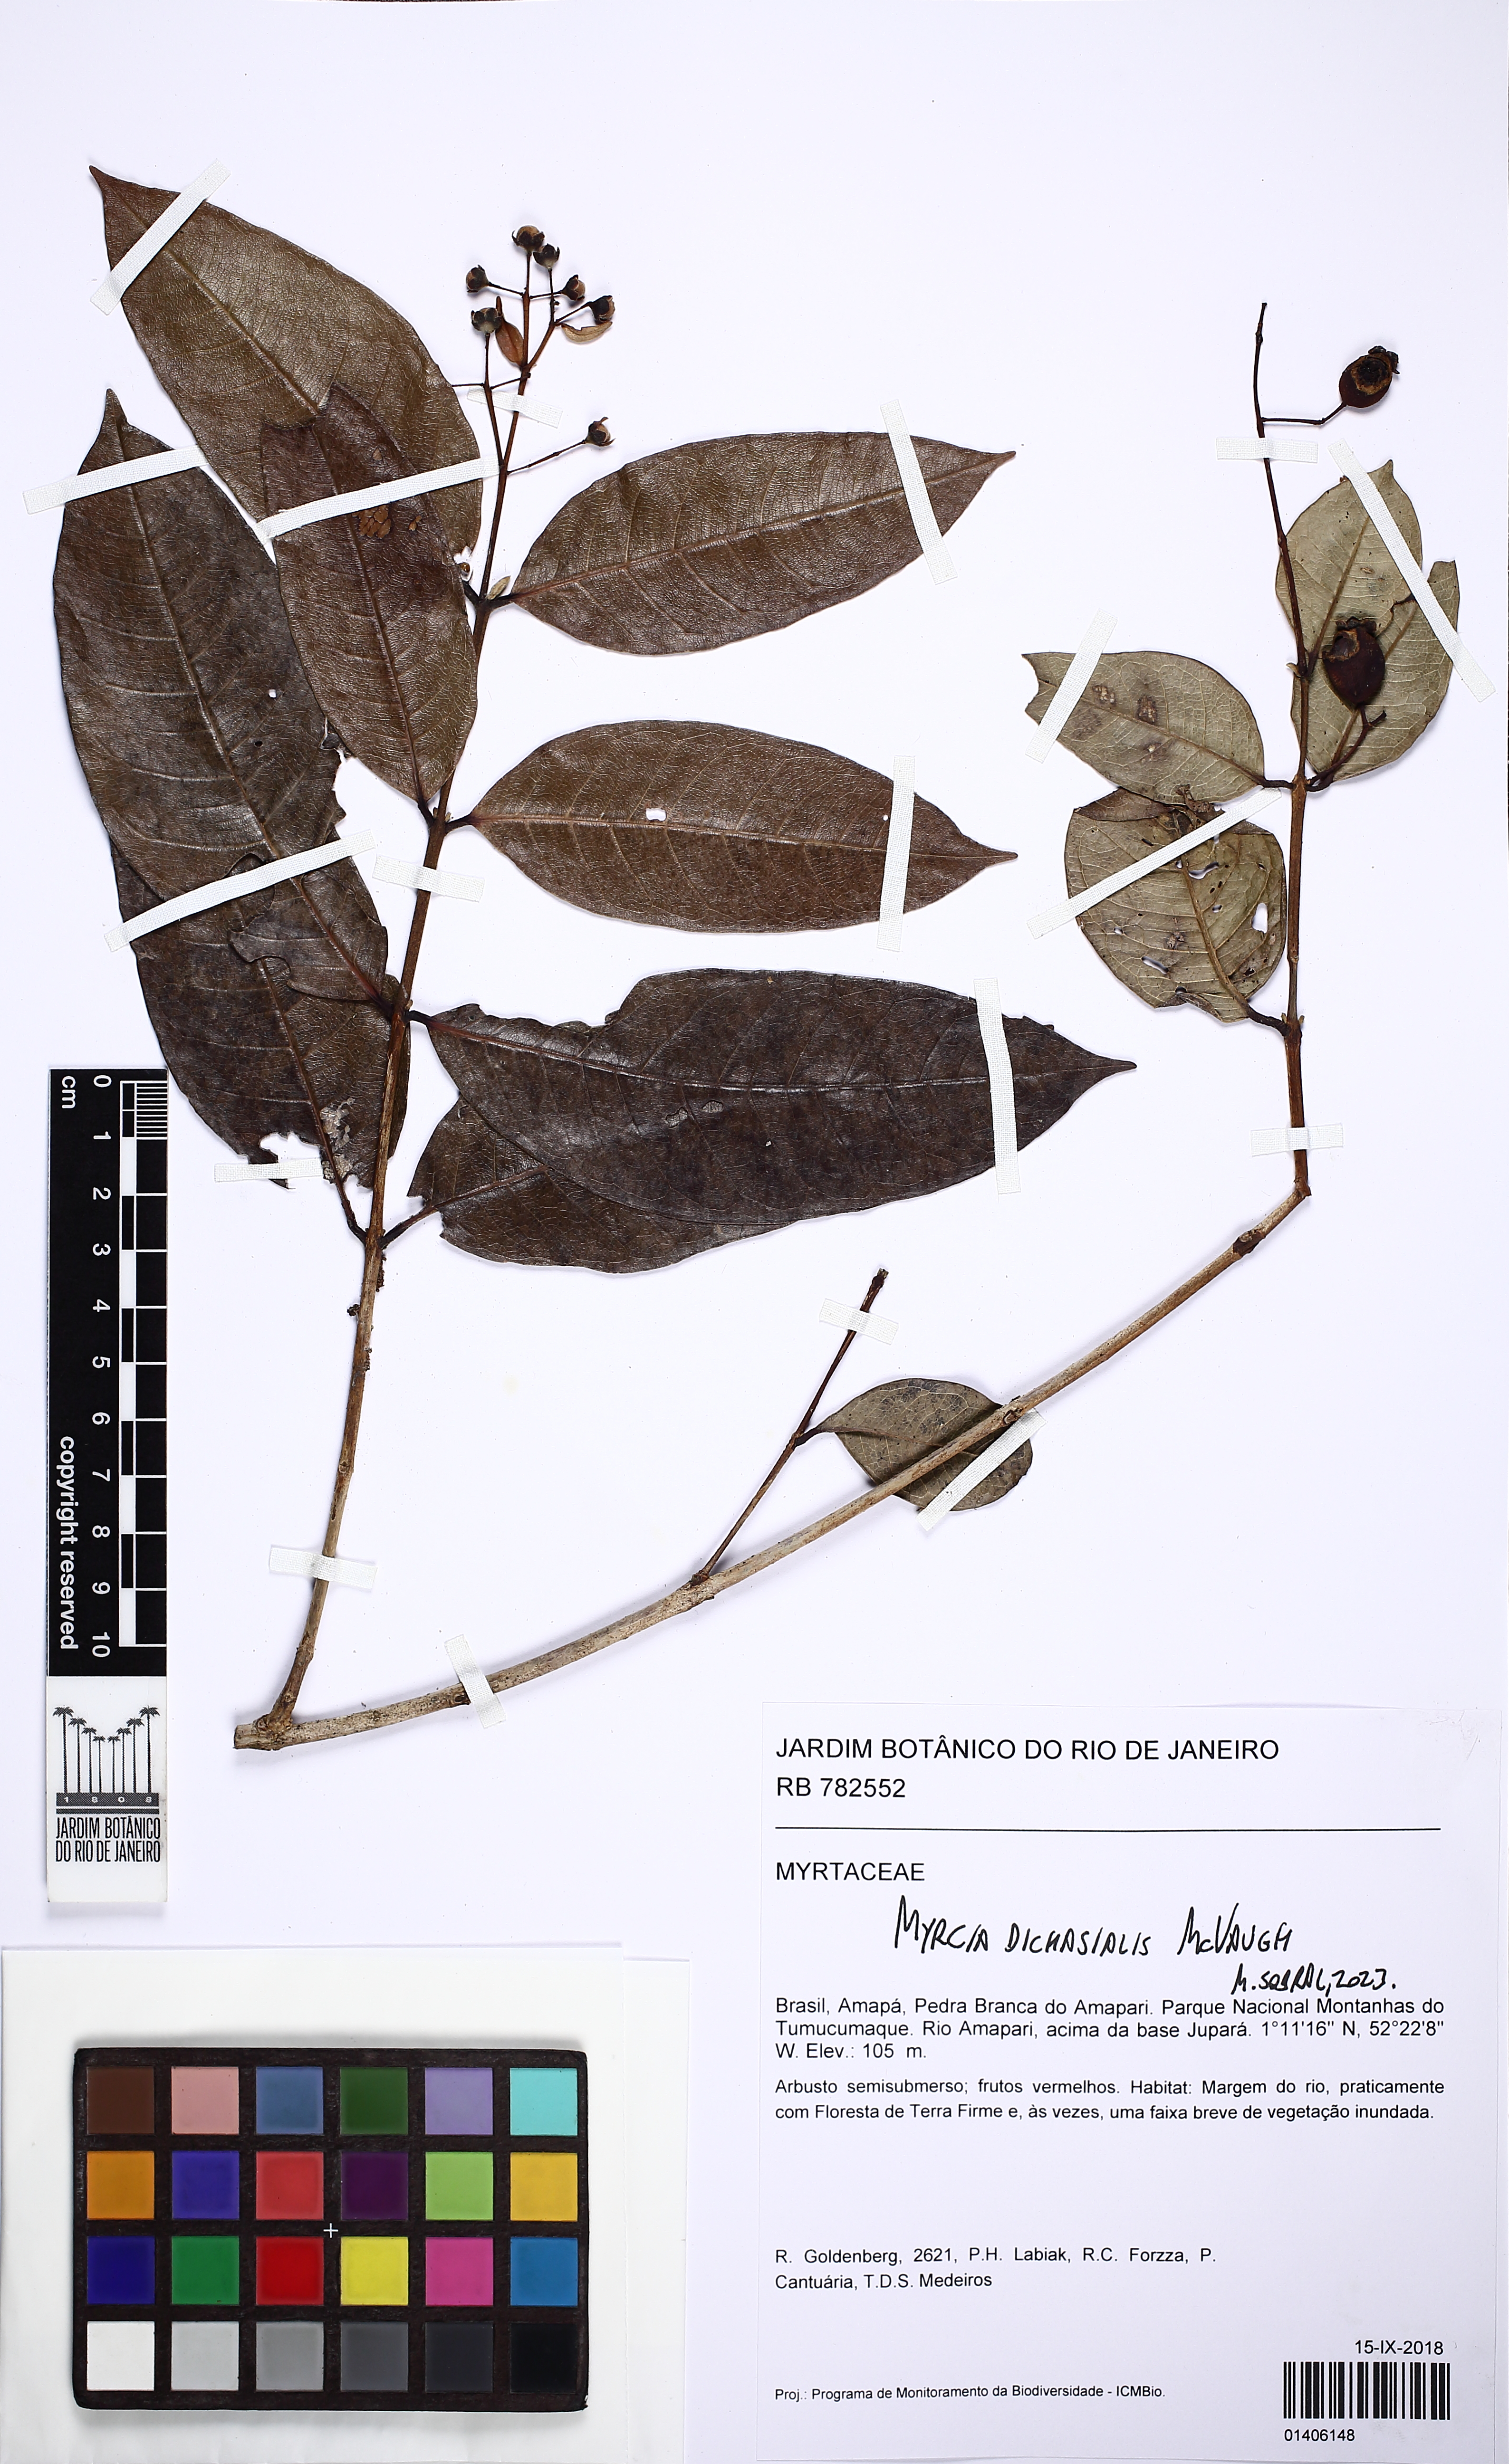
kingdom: Plantae
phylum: Tracheophyta
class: Magnoliopsida
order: Myrtales
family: Myrtaceae
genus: Myrcia
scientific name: Myrcia dichasialis
